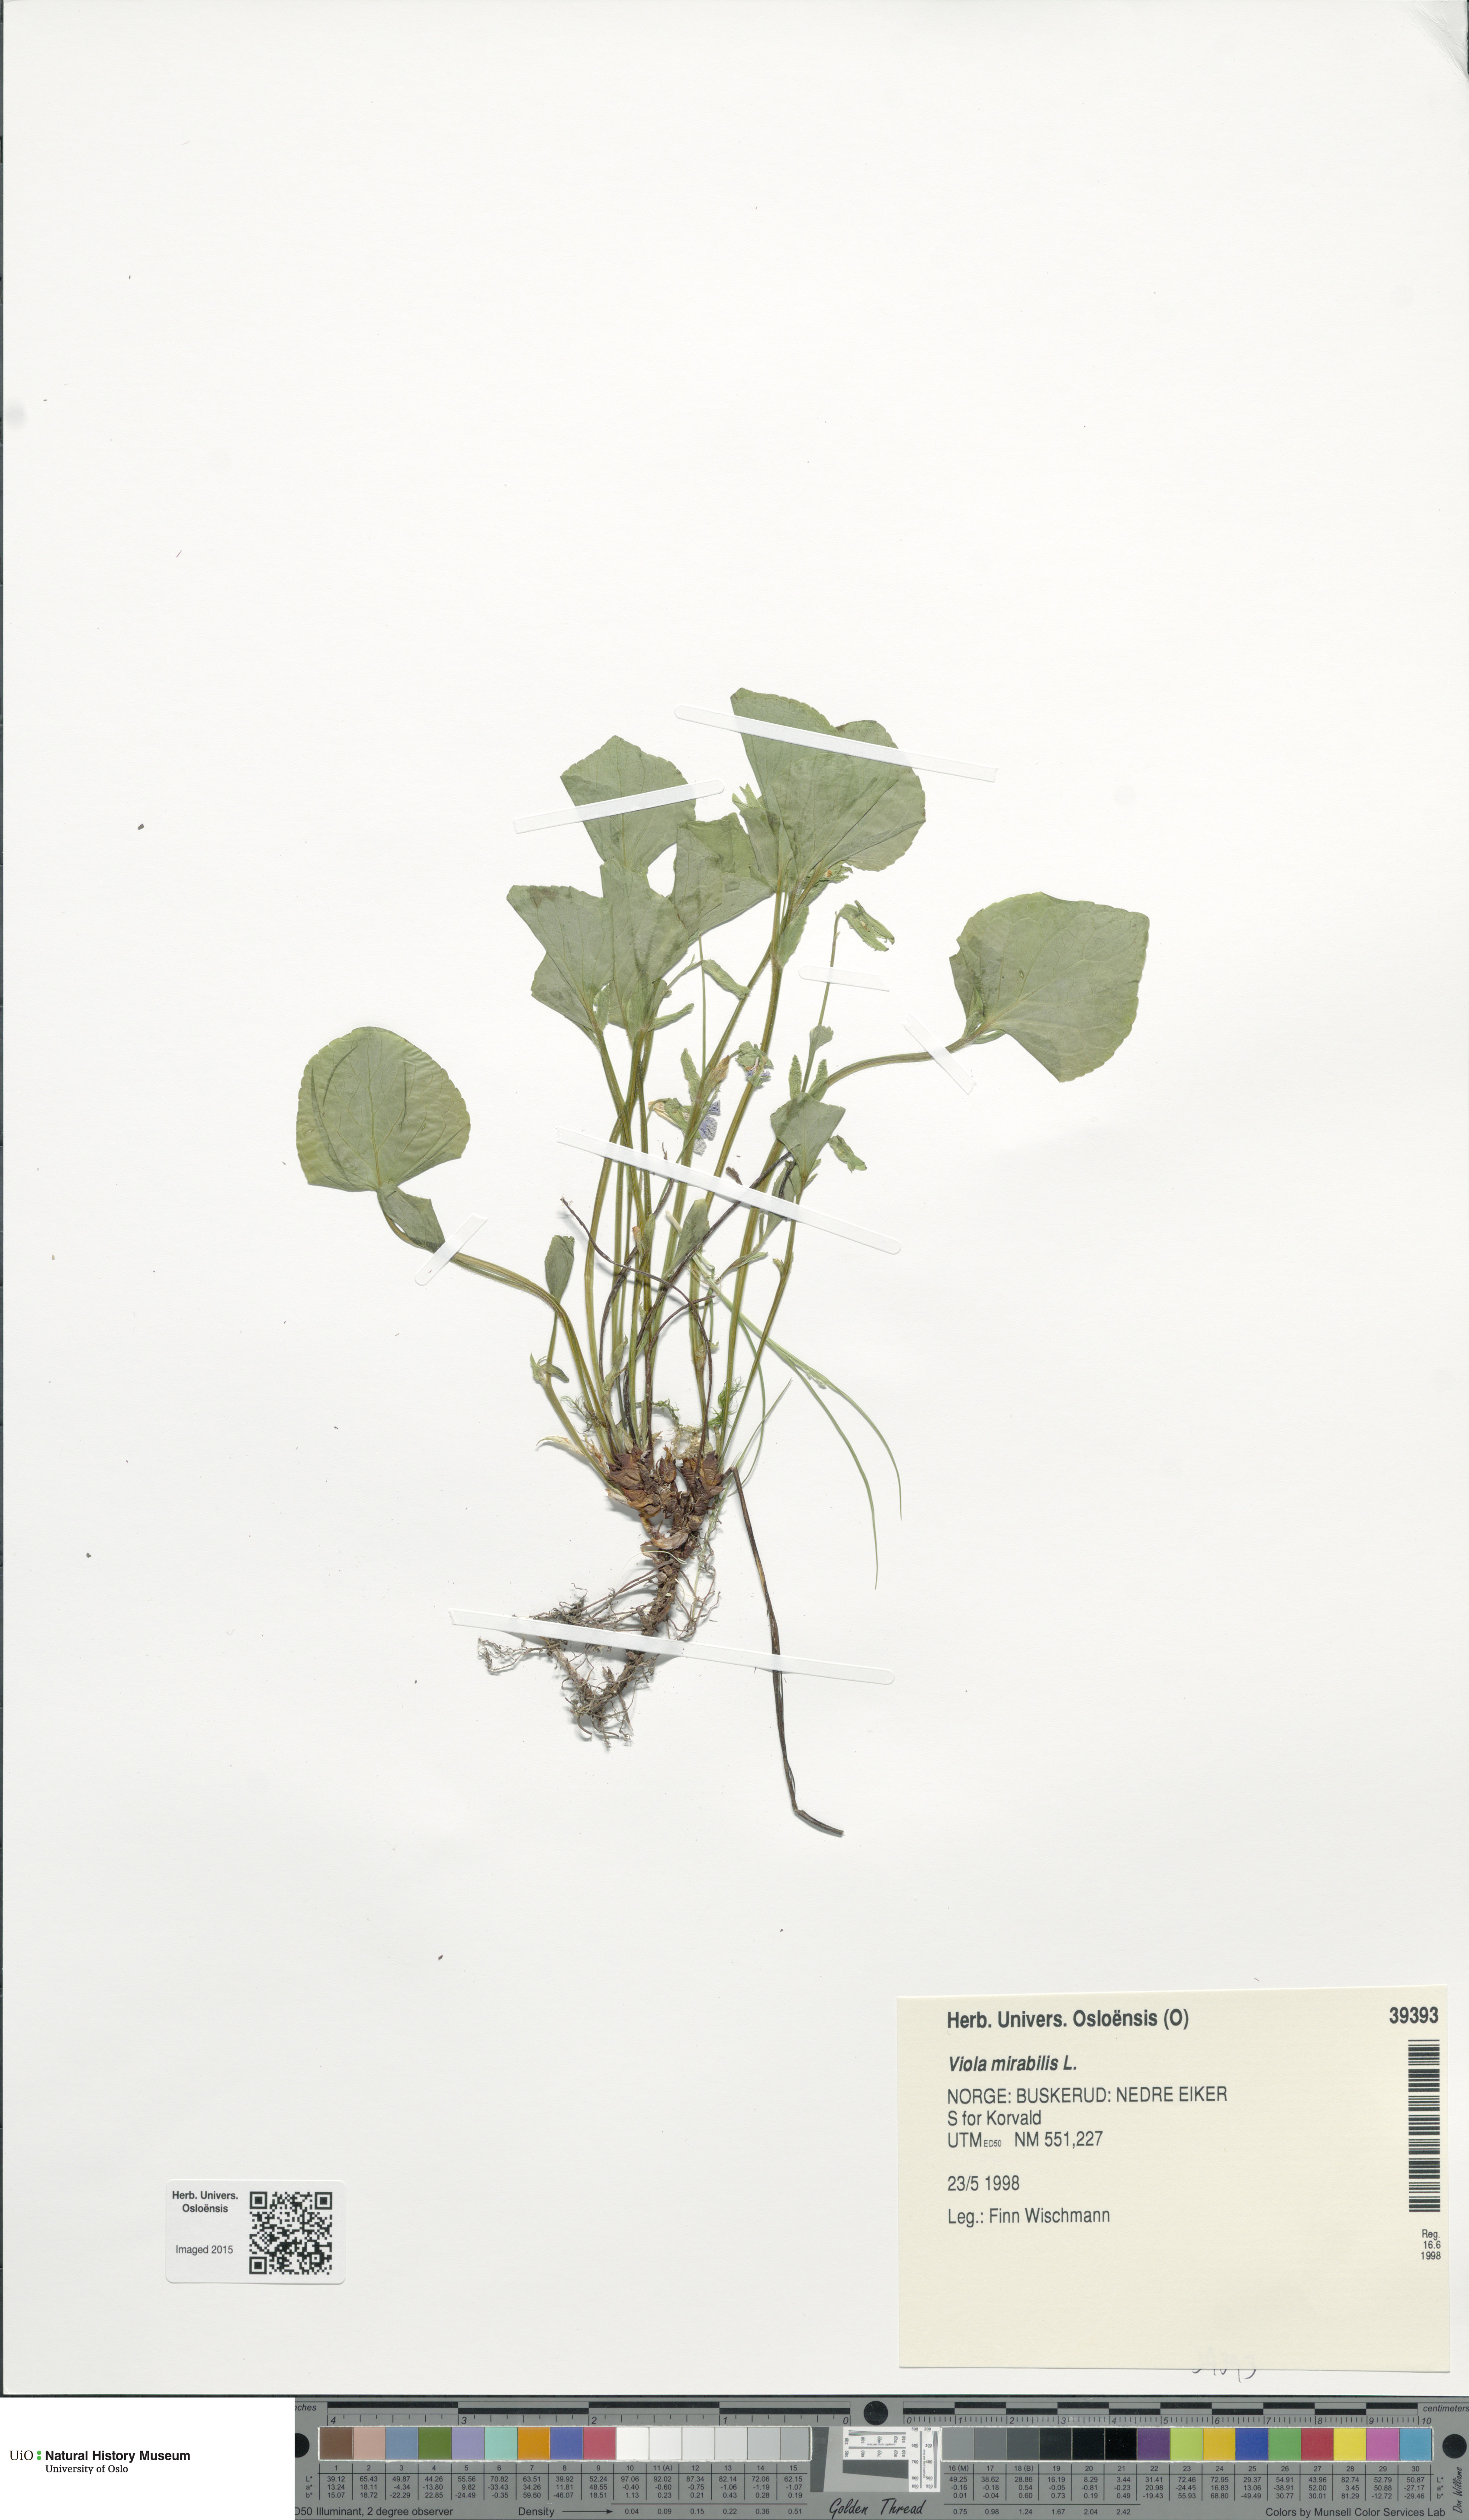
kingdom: Plantae
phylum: Tracheophyta
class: Magnoliopsida
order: Malpighiales
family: Violaceae
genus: Viola
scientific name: Viola mirabilis
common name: Wonder violet
